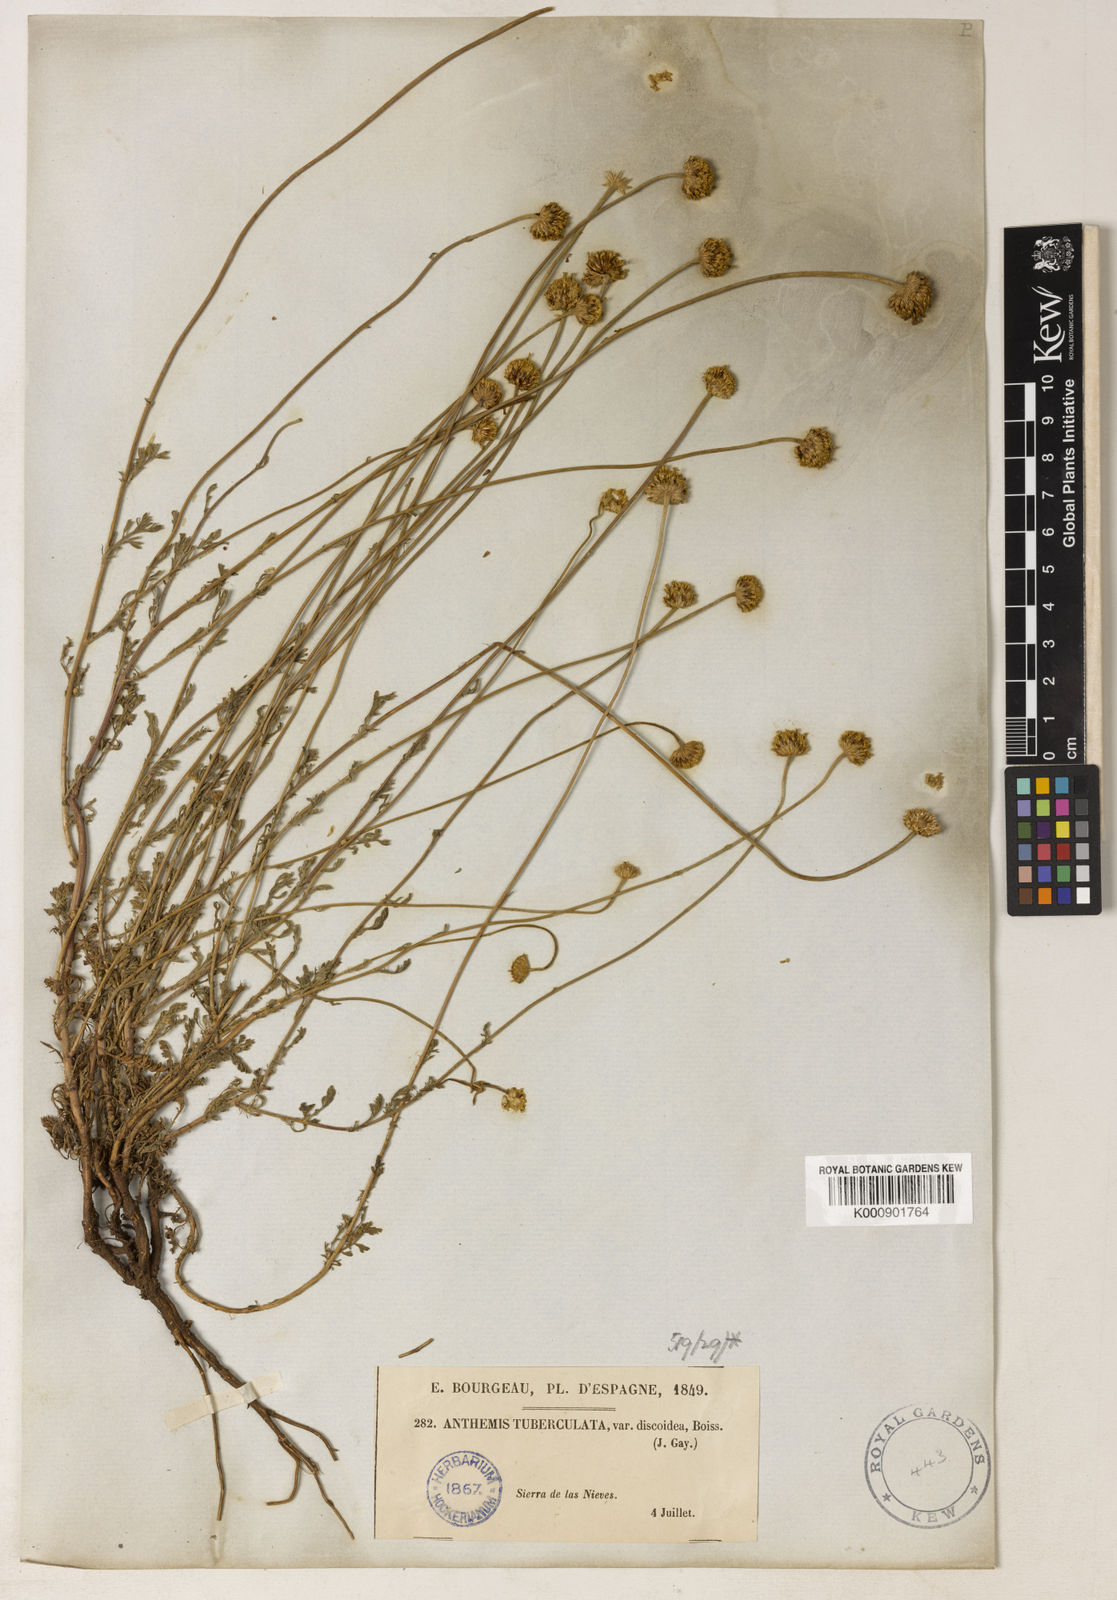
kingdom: Plantae
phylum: Tracheophyta
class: Magnoliopsida
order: Asterales
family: Asteraceae
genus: Anthemis
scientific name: Anthemis
